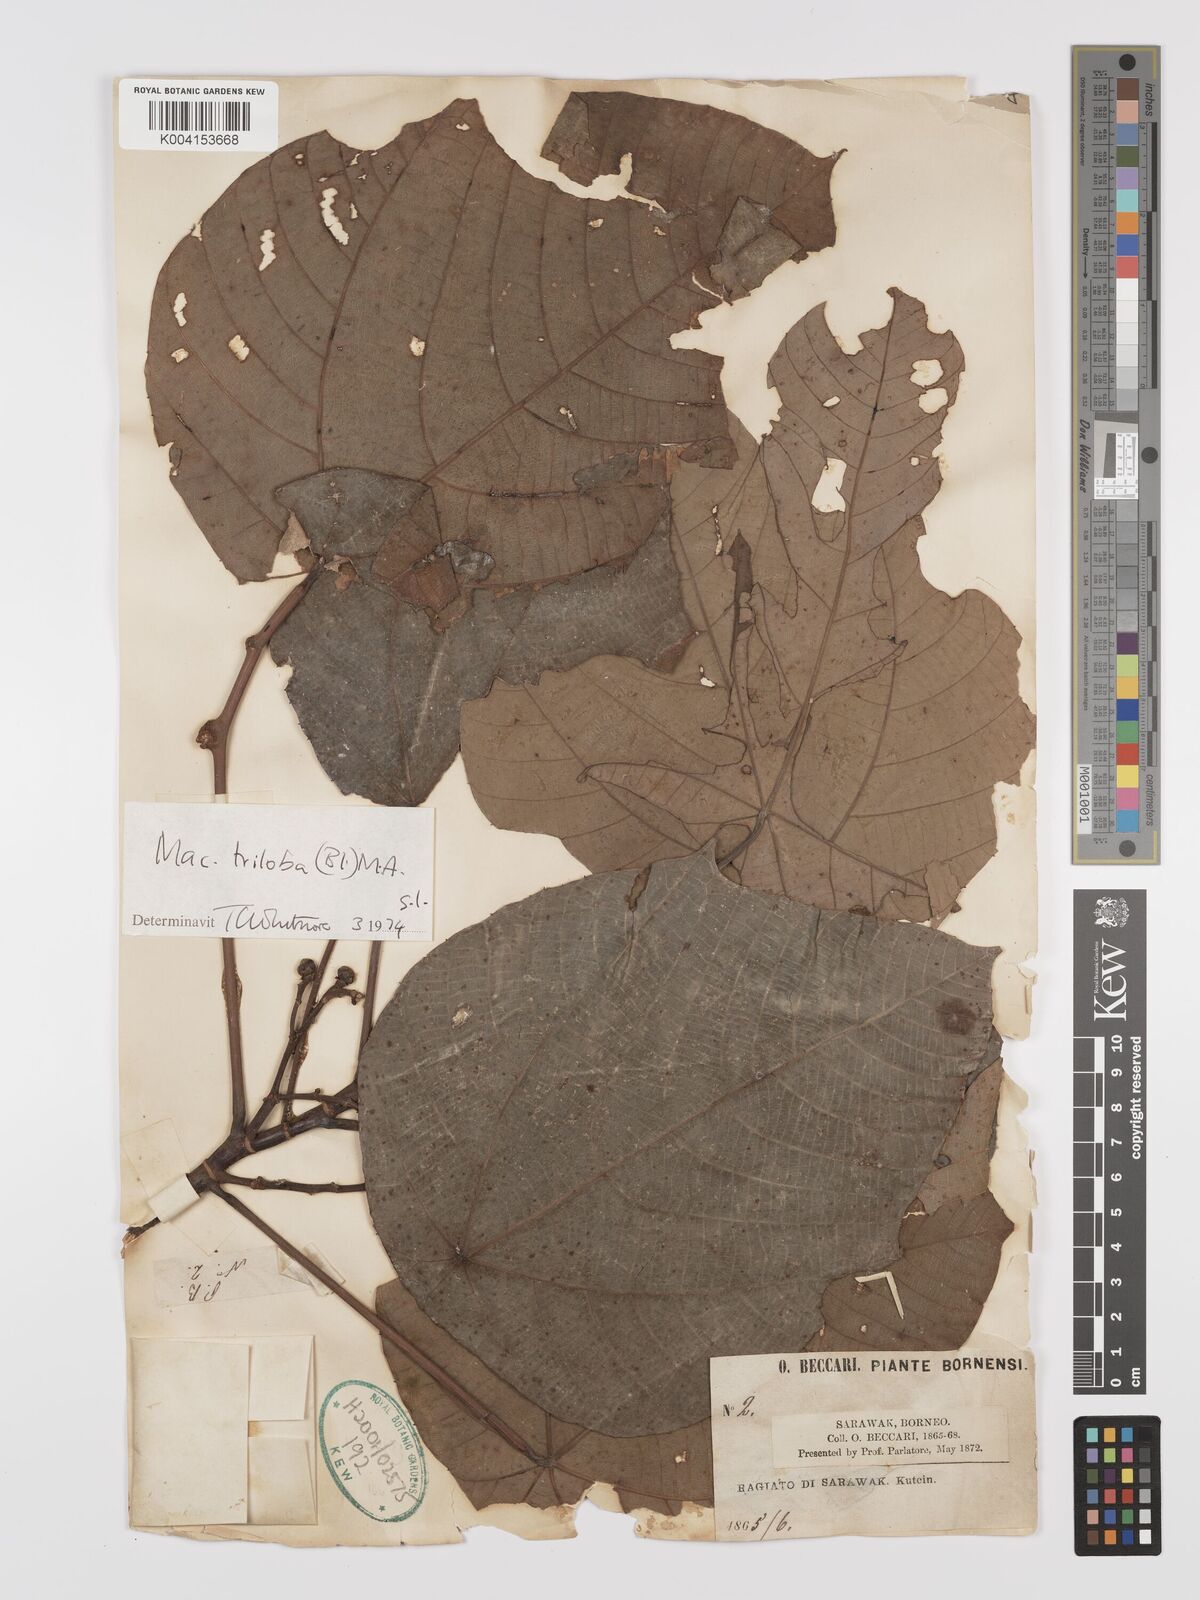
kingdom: Plantae
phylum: Tracheophyta
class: Magnoliopsida
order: Malpighiales
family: Euphorbiaceae
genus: Macaranga
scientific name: Macaranga triloba
